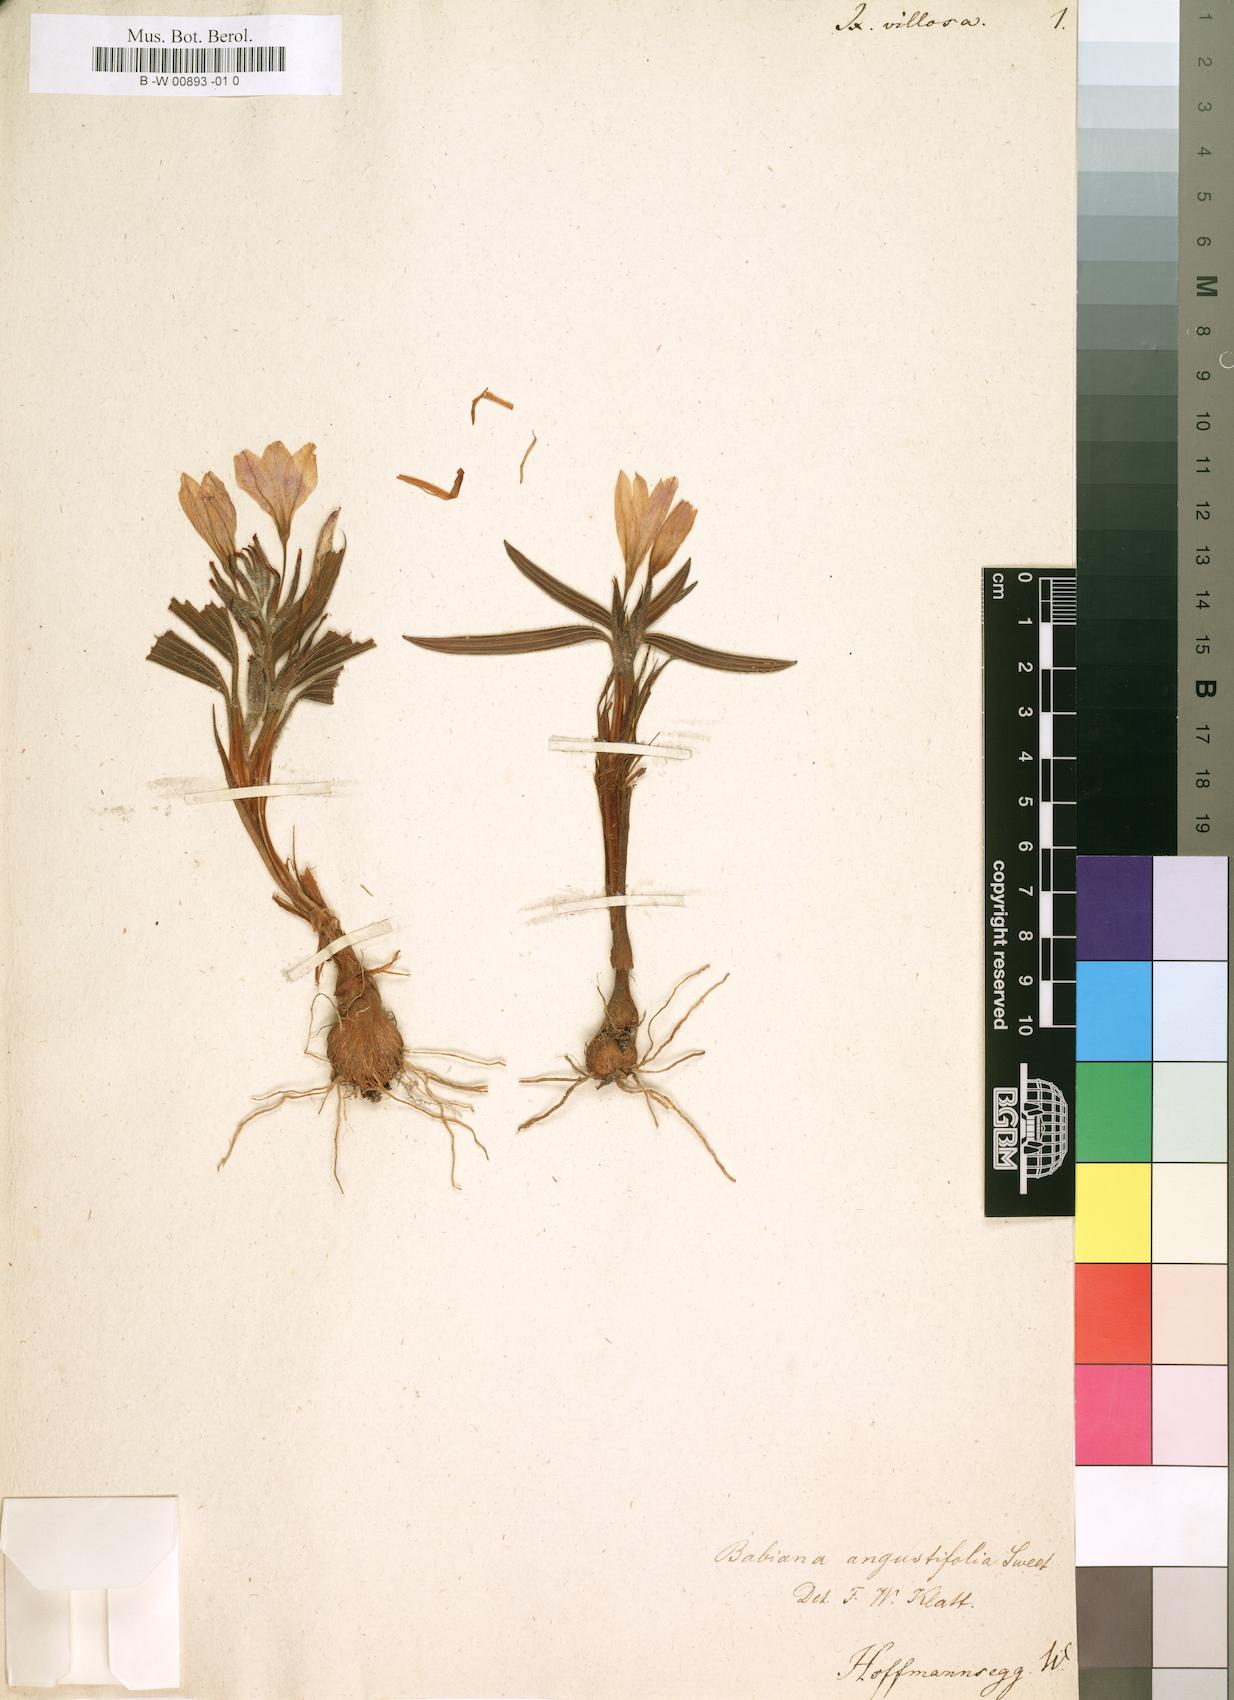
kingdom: Plantae
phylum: Tracheophyta
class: Liliopsida
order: Asparagales
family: Iridaceae
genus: Babiana
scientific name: Babiana villosa
